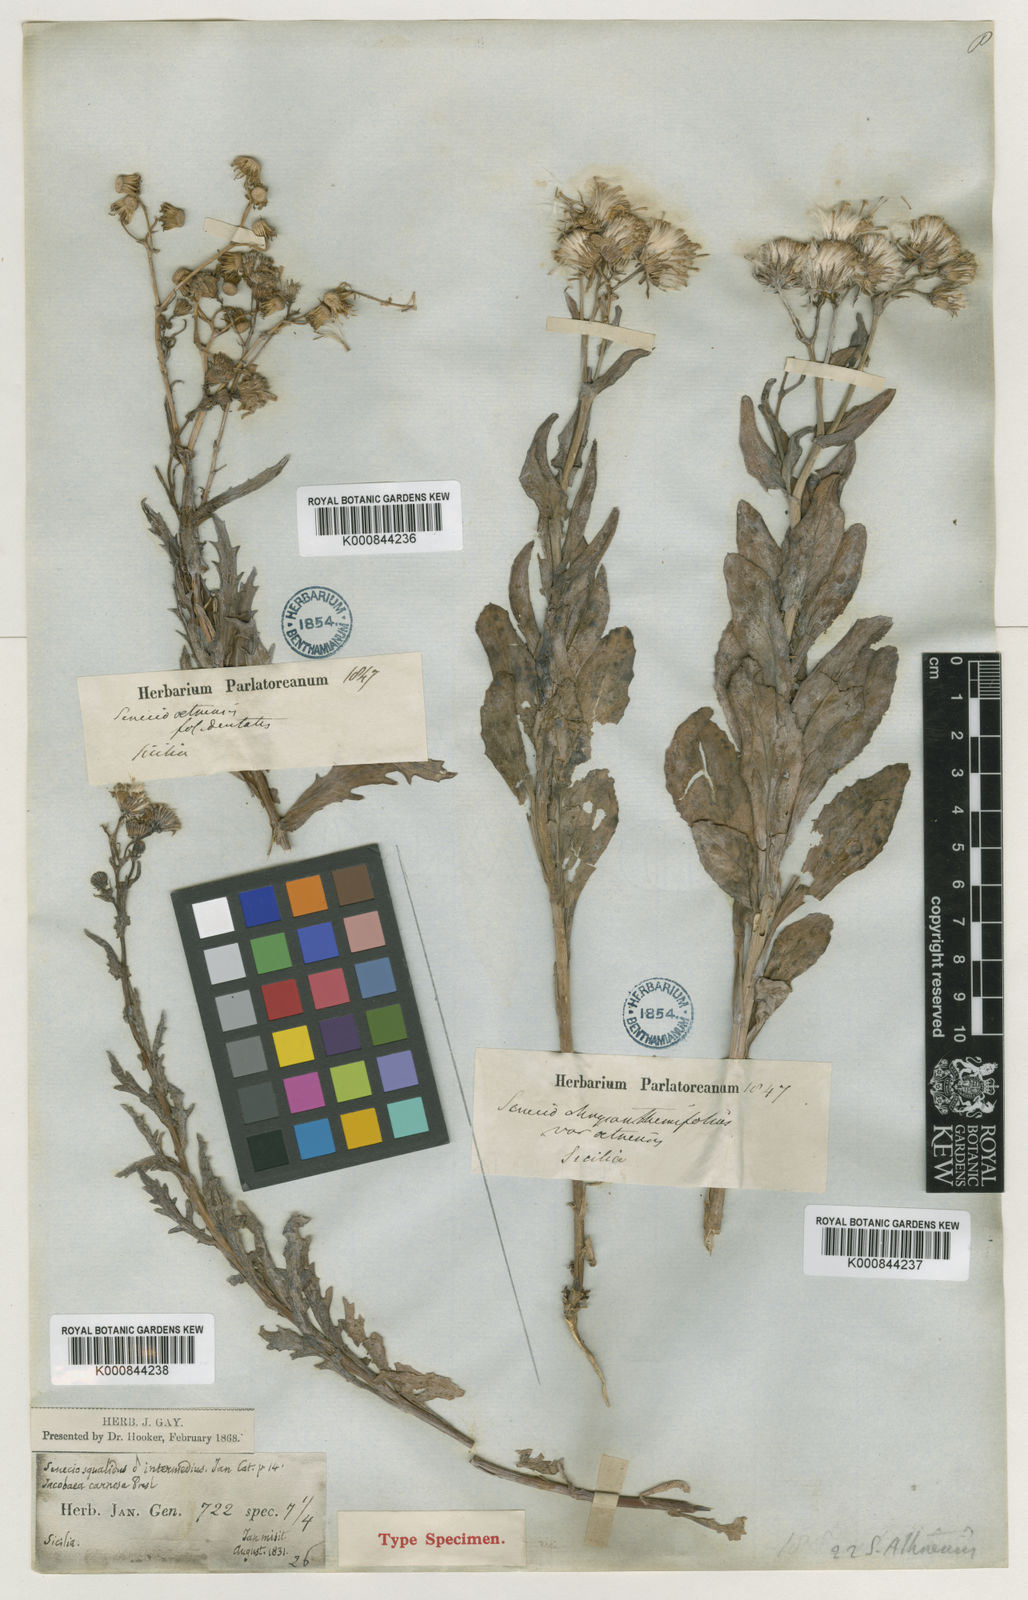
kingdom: Plantae
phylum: Tracheophyta
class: Magnoliopsida
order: Asterales
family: Asteraceae
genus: Senecio
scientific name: Senecio squalidus
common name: Oxford ragwort
